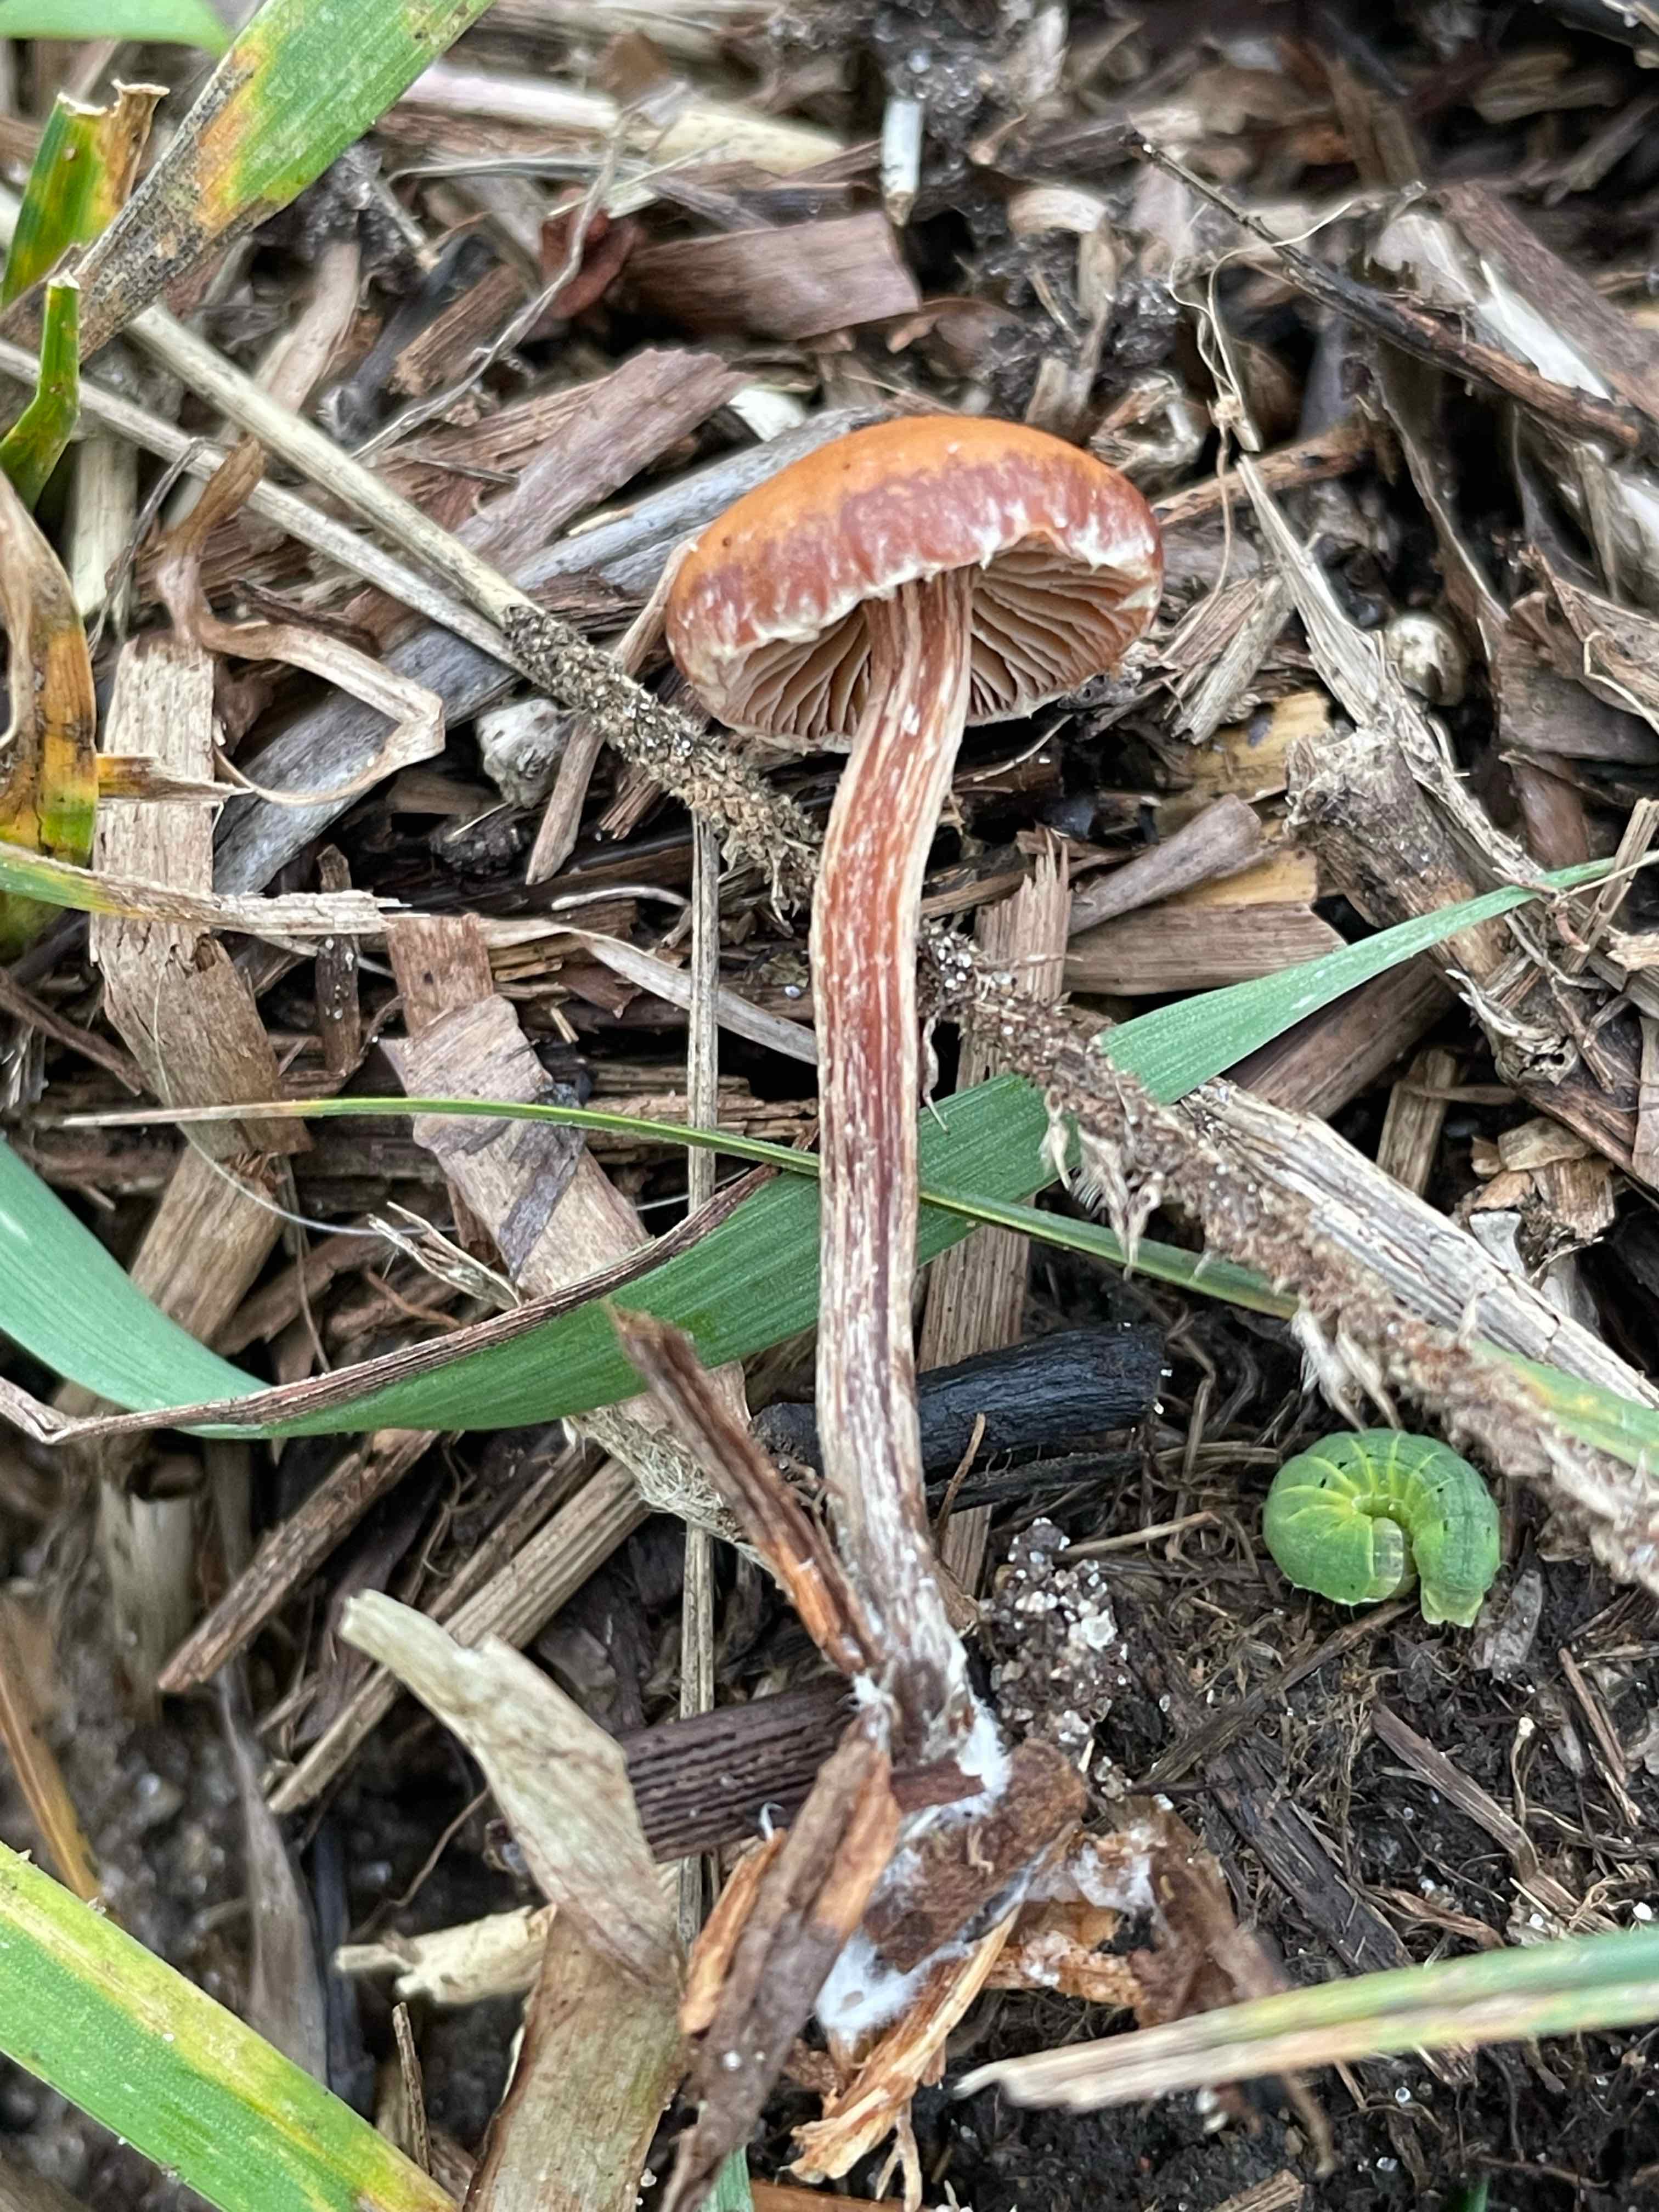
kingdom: Fungi
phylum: Basidiomycota
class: Agaricomycetes
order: Agaricales
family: Strophariaceae
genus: Deconica
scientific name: Deconica
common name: stråhat
